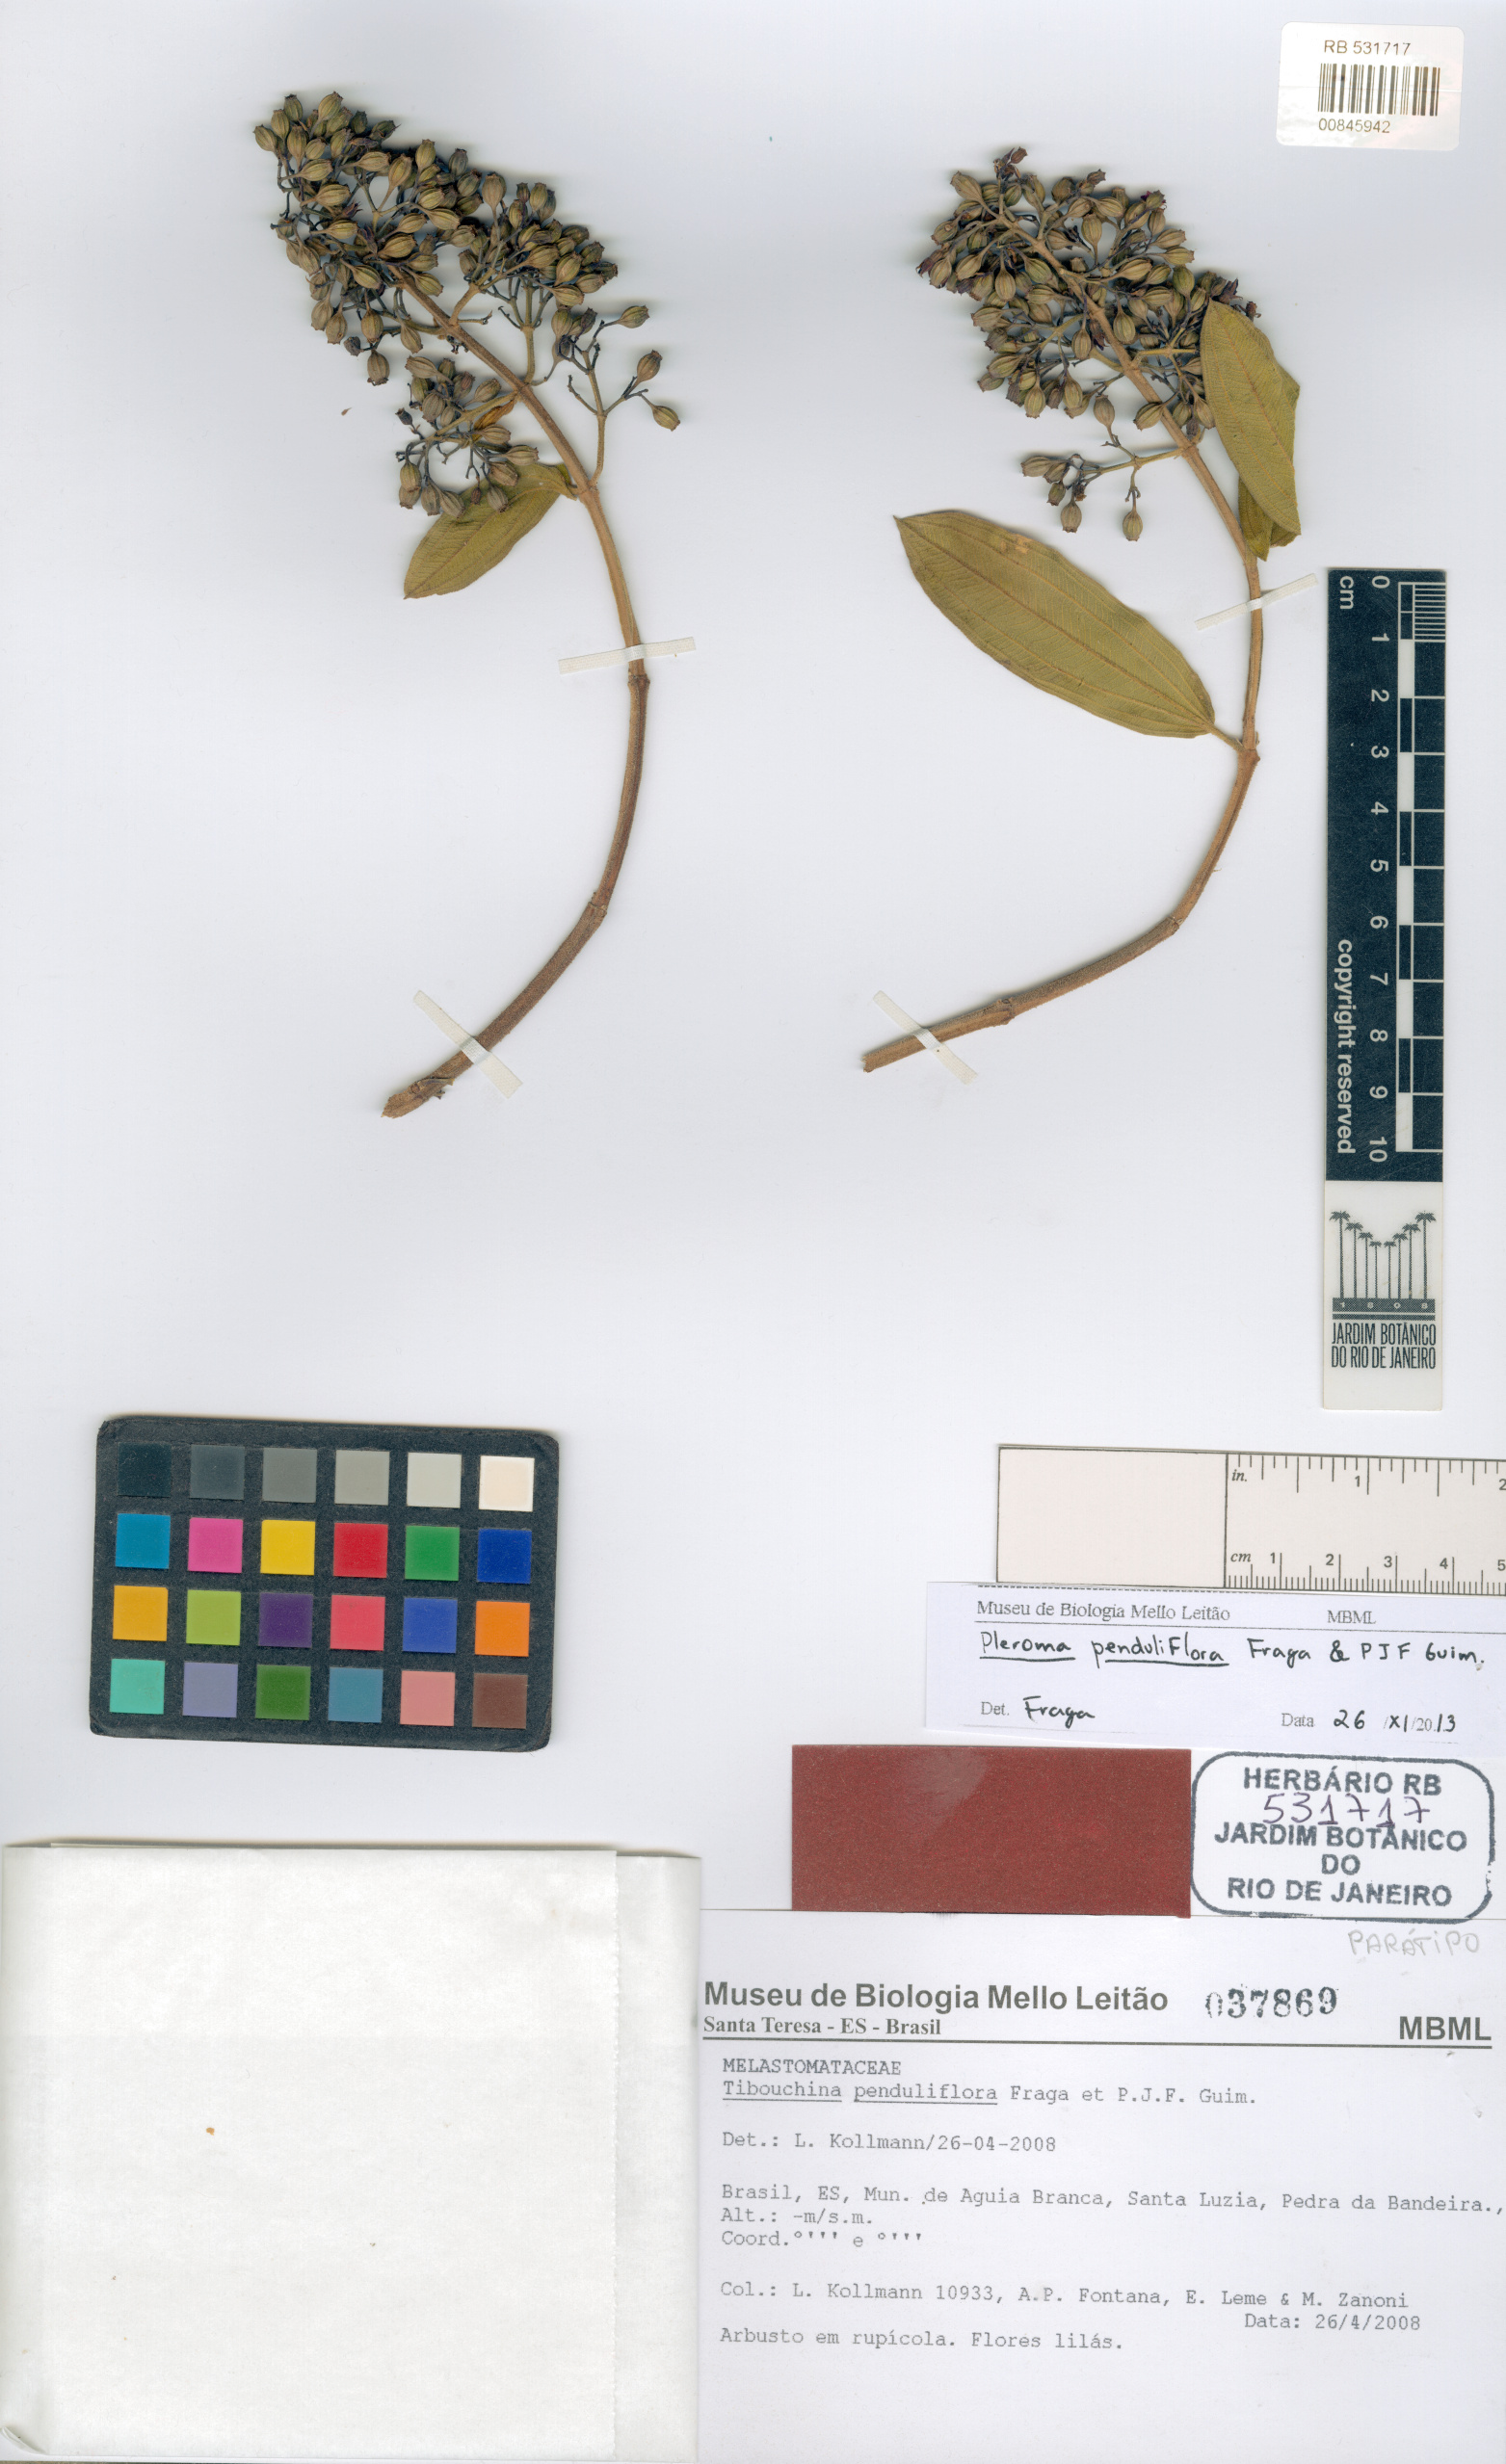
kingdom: Plantae
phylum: Tracheophyta
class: Magnoliopsida
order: Myrtales
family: Melastomataceae
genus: Pleroma
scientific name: Pleroma penduliflorum
